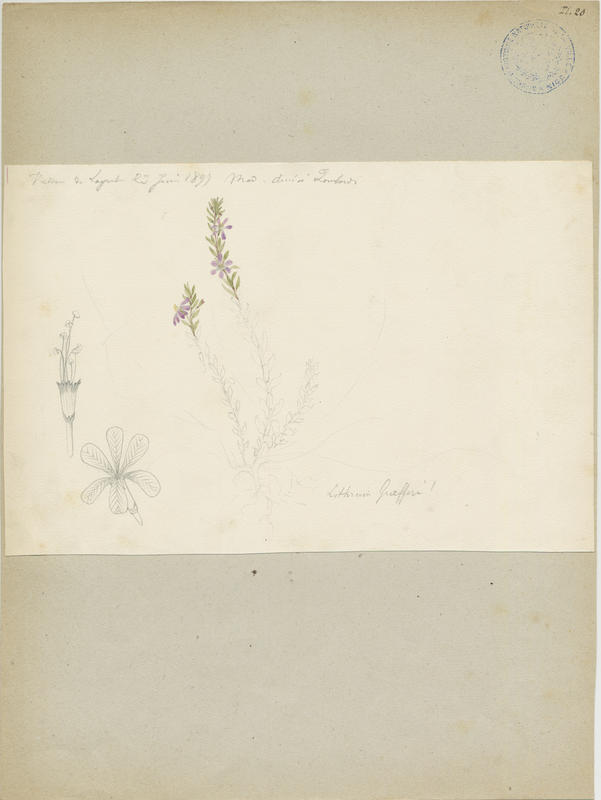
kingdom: Plantae
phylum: Tracheophyta
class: Magnoliopsida
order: Myrtales
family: Lythraceae
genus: Lythrum
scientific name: Lythrum junceum
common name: False grass-poly
